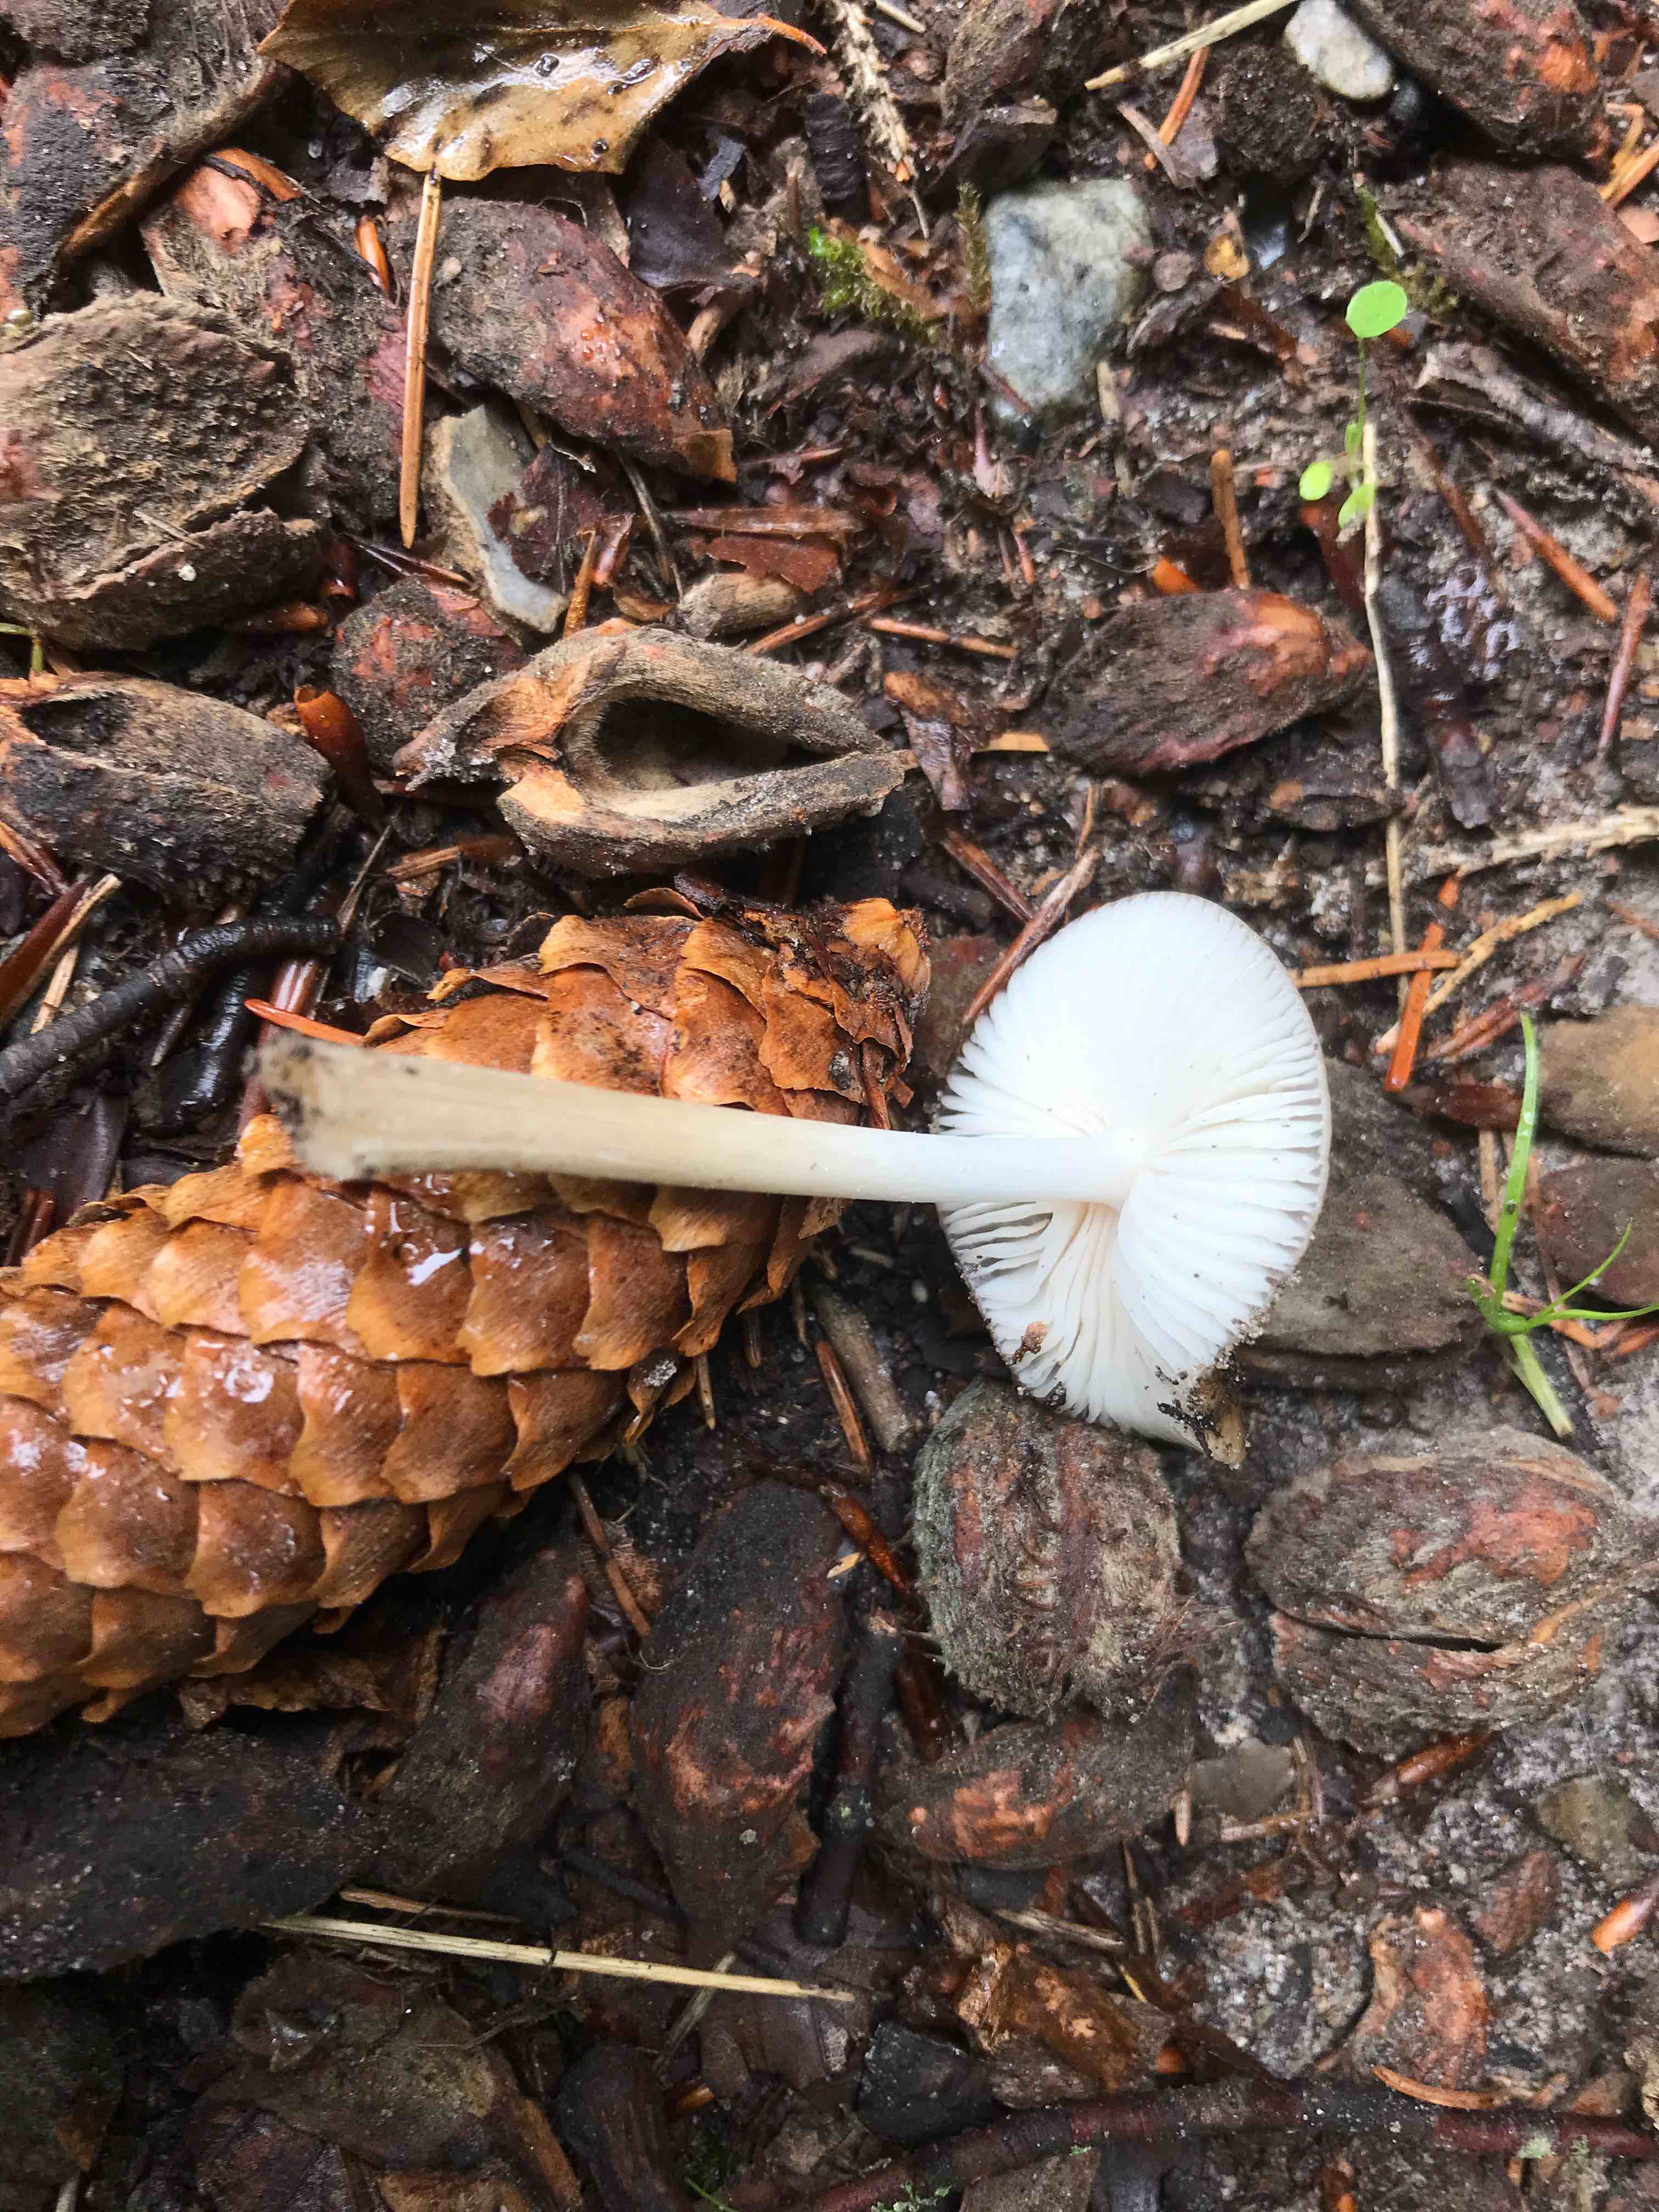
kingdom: Fungi
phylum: Basidiomycota
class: Agaricomycetes
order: Agaricales
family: Physalacriaceae
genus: Hymenopellis
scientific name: Hymenopellis radicata
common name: almindelig pælerodshat
